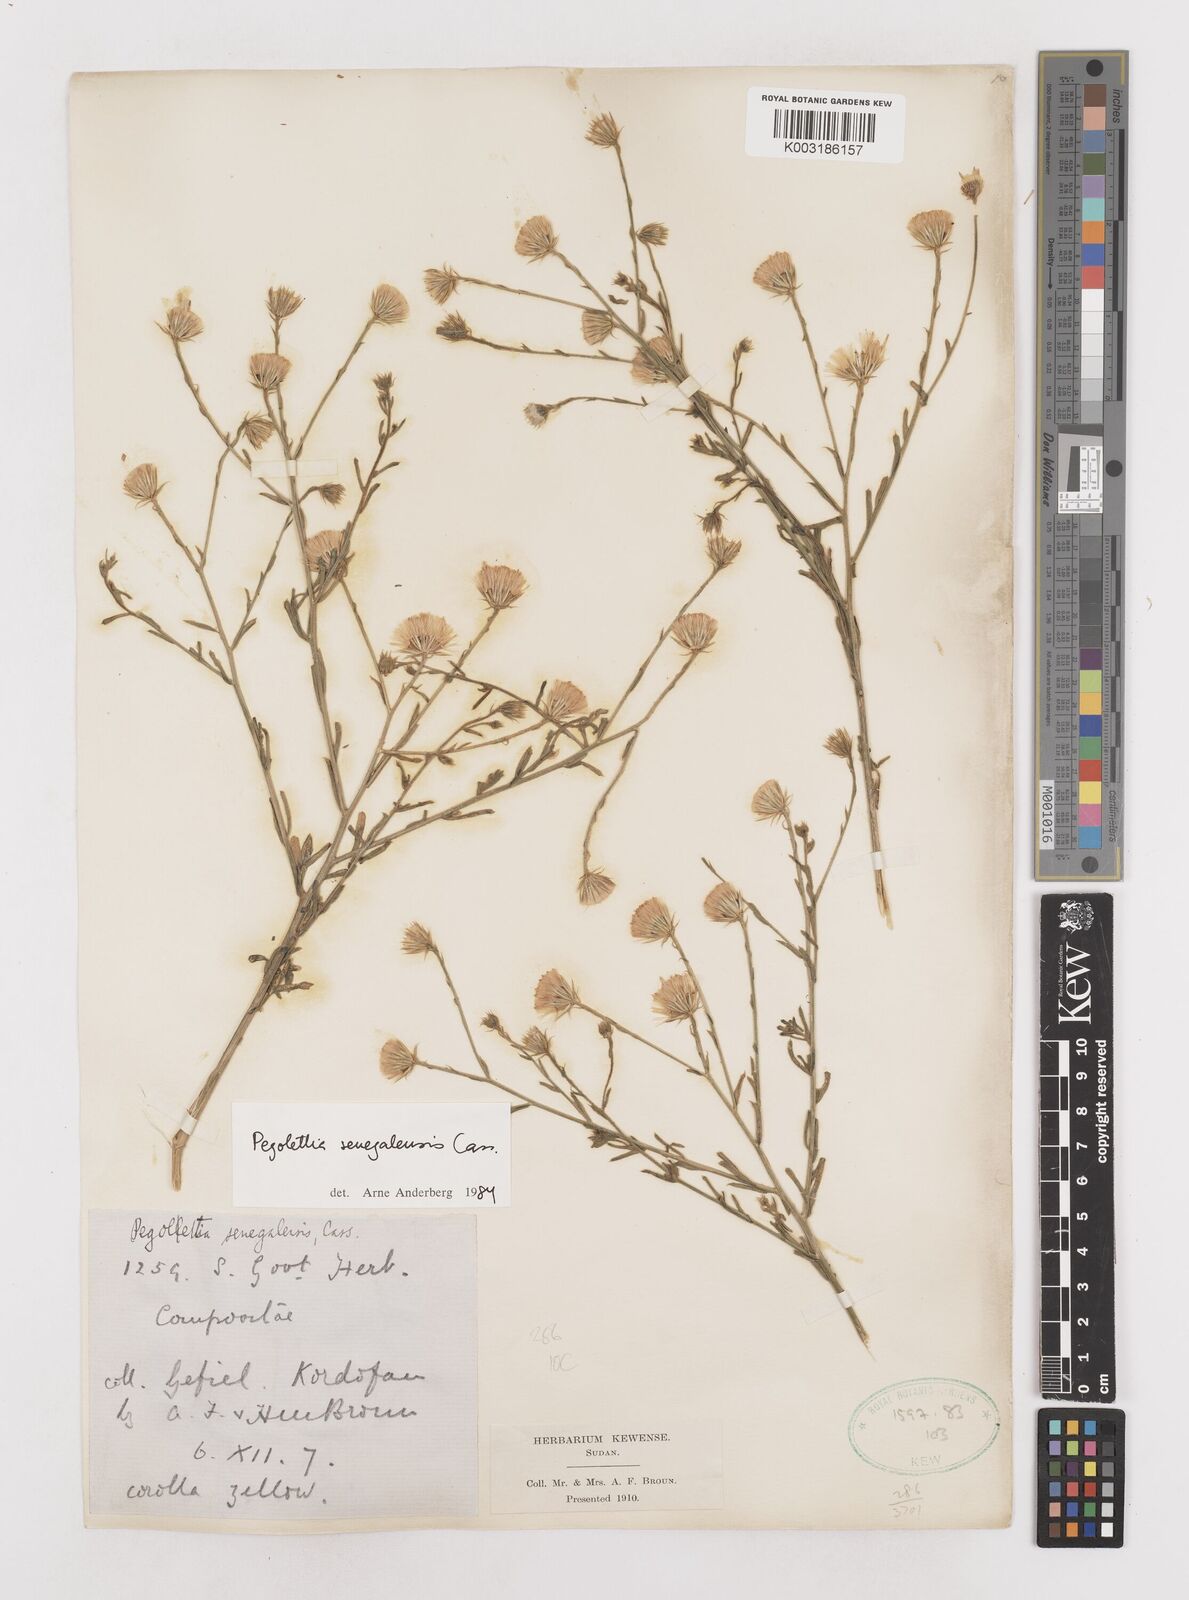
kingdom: Plantae
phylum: Tracheophyta
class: Magnoliopsida
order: Asterales
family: Asteraceae
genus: Pegolettia
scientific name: Pegolettia senegalensis
